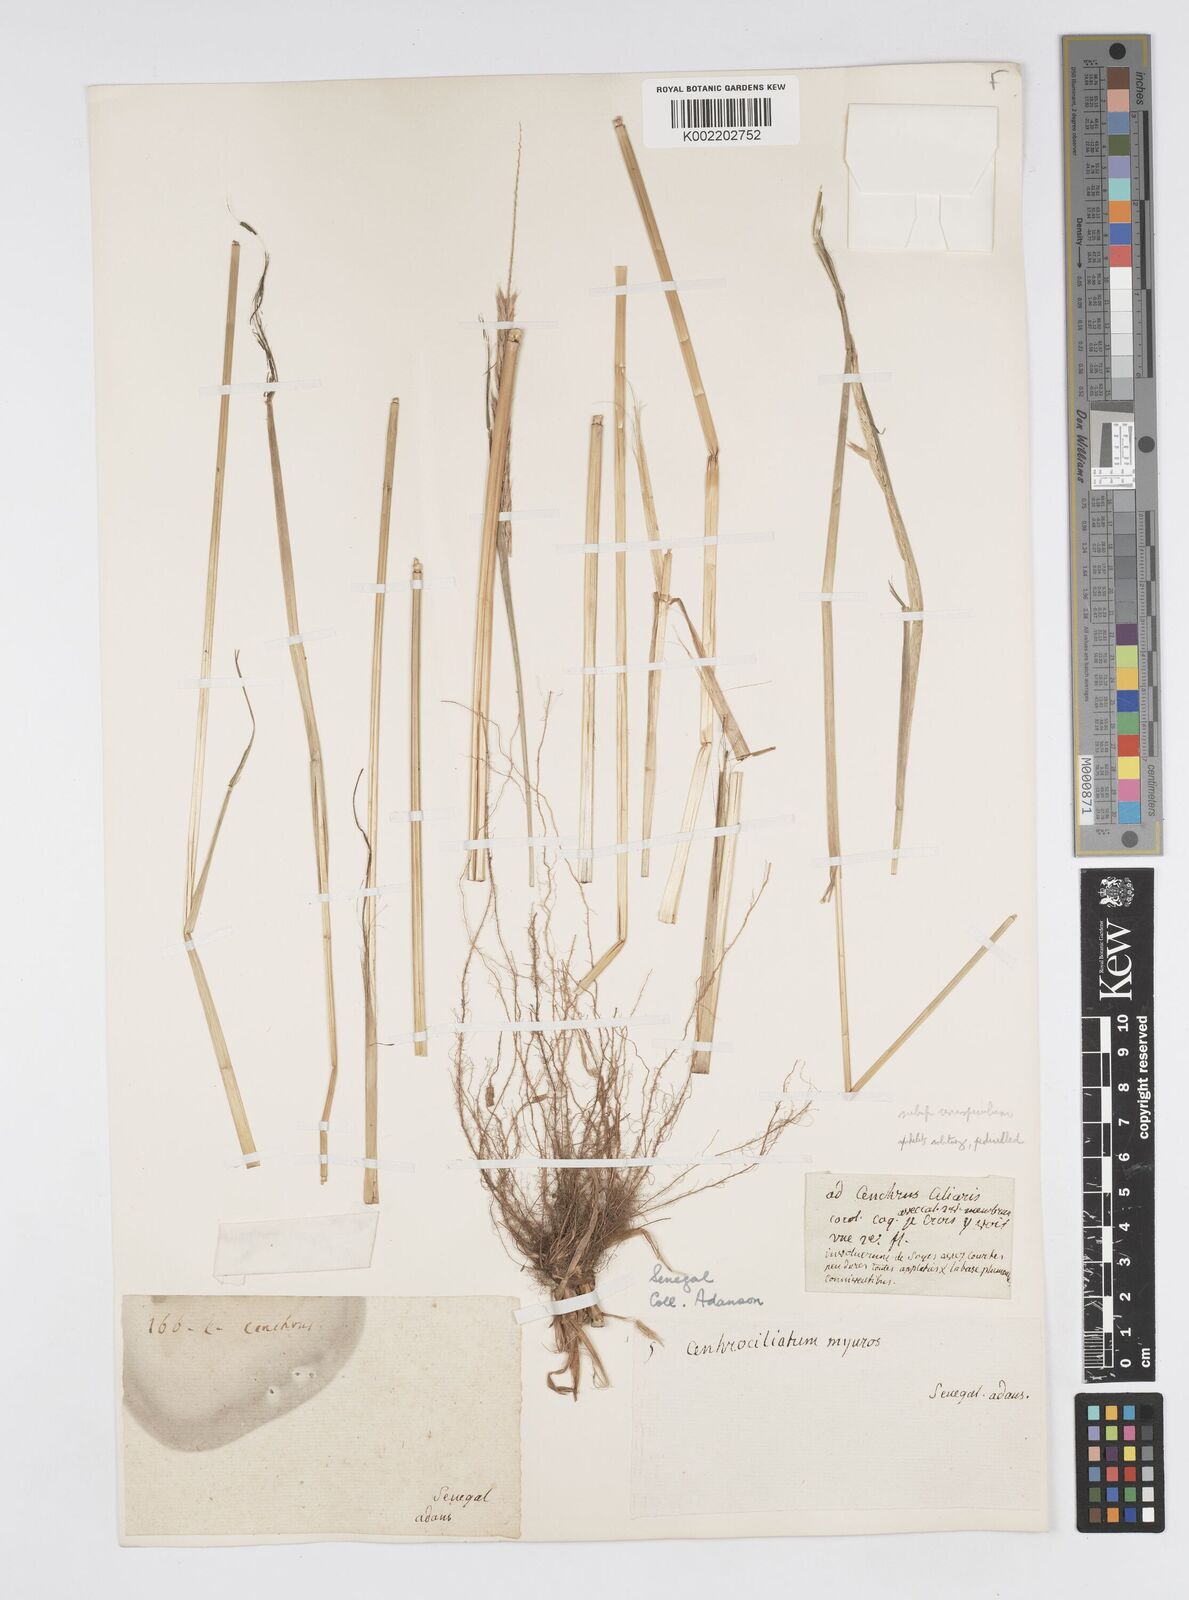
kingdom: Plantae
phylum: Tracheophyta
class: Liliopsida
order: Poales
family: Poaceae
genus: Cenchrus
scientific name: Cenchrus pedicellatus
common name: Hairy fountain grass
